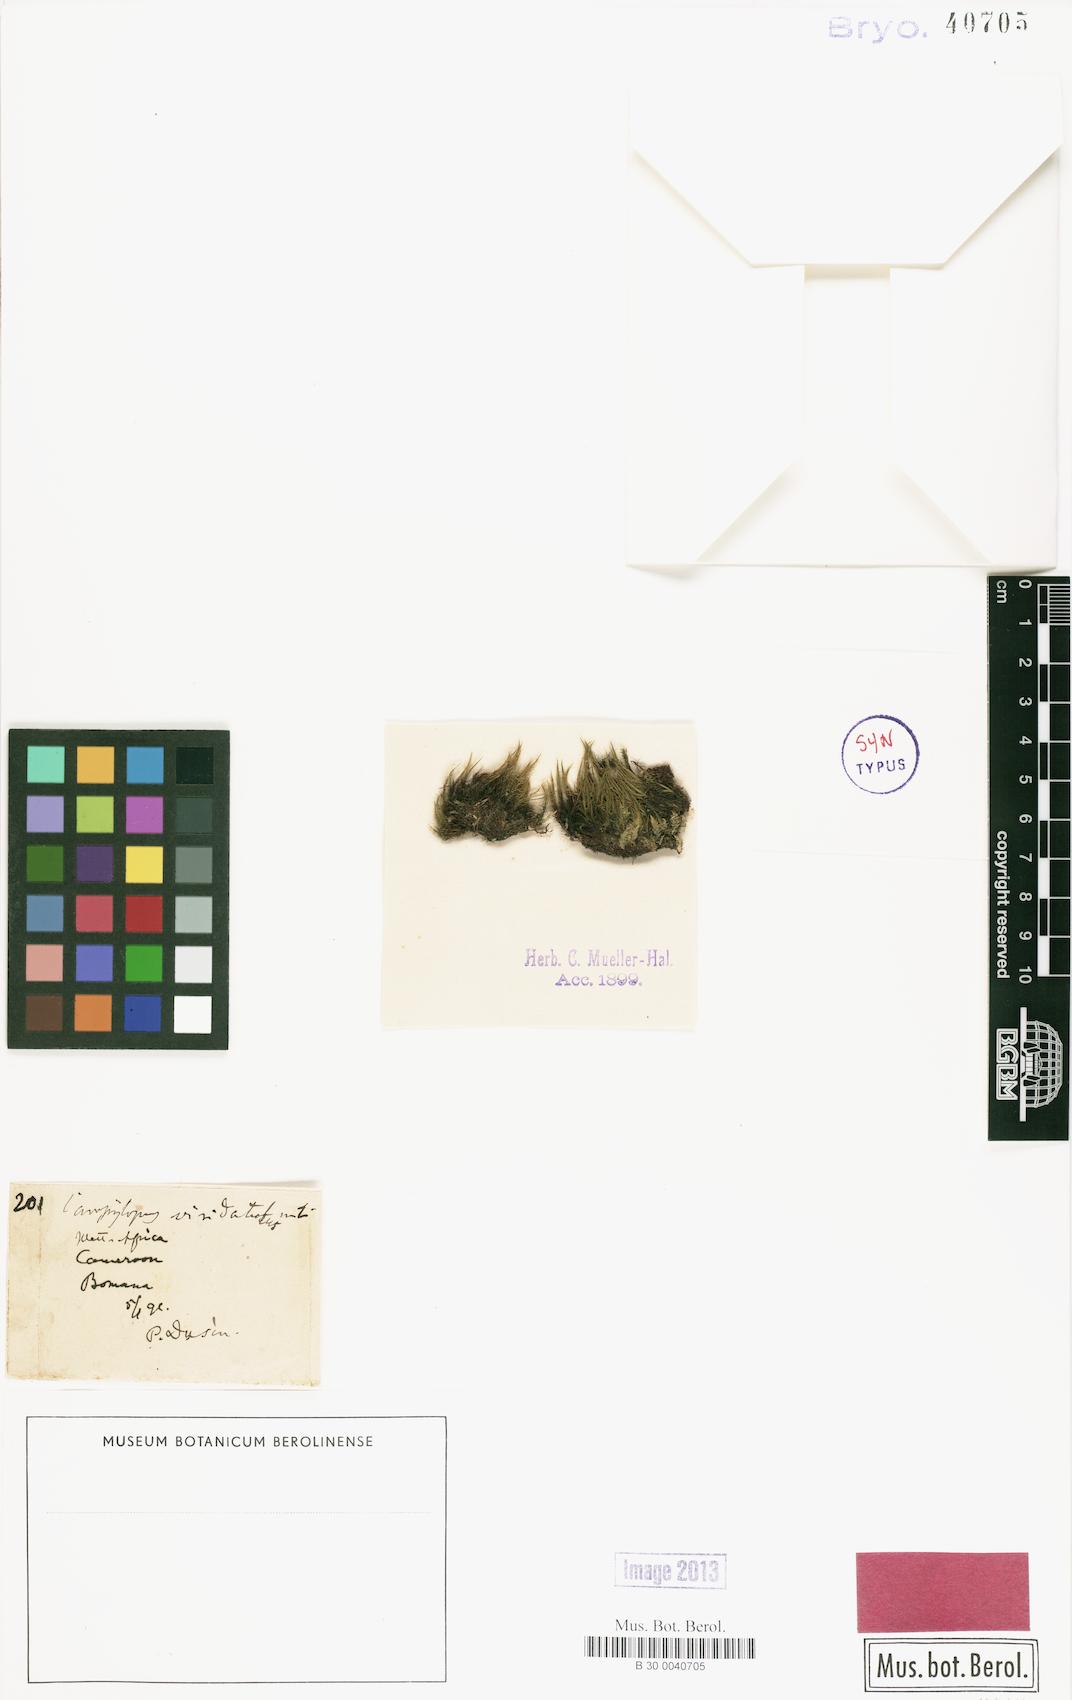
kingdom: Plantae
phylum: Bryophyta
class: Bryopsida
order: Dicranales
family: Leucobryaceae
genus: Campylopus
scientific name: Campylopus savannarum
